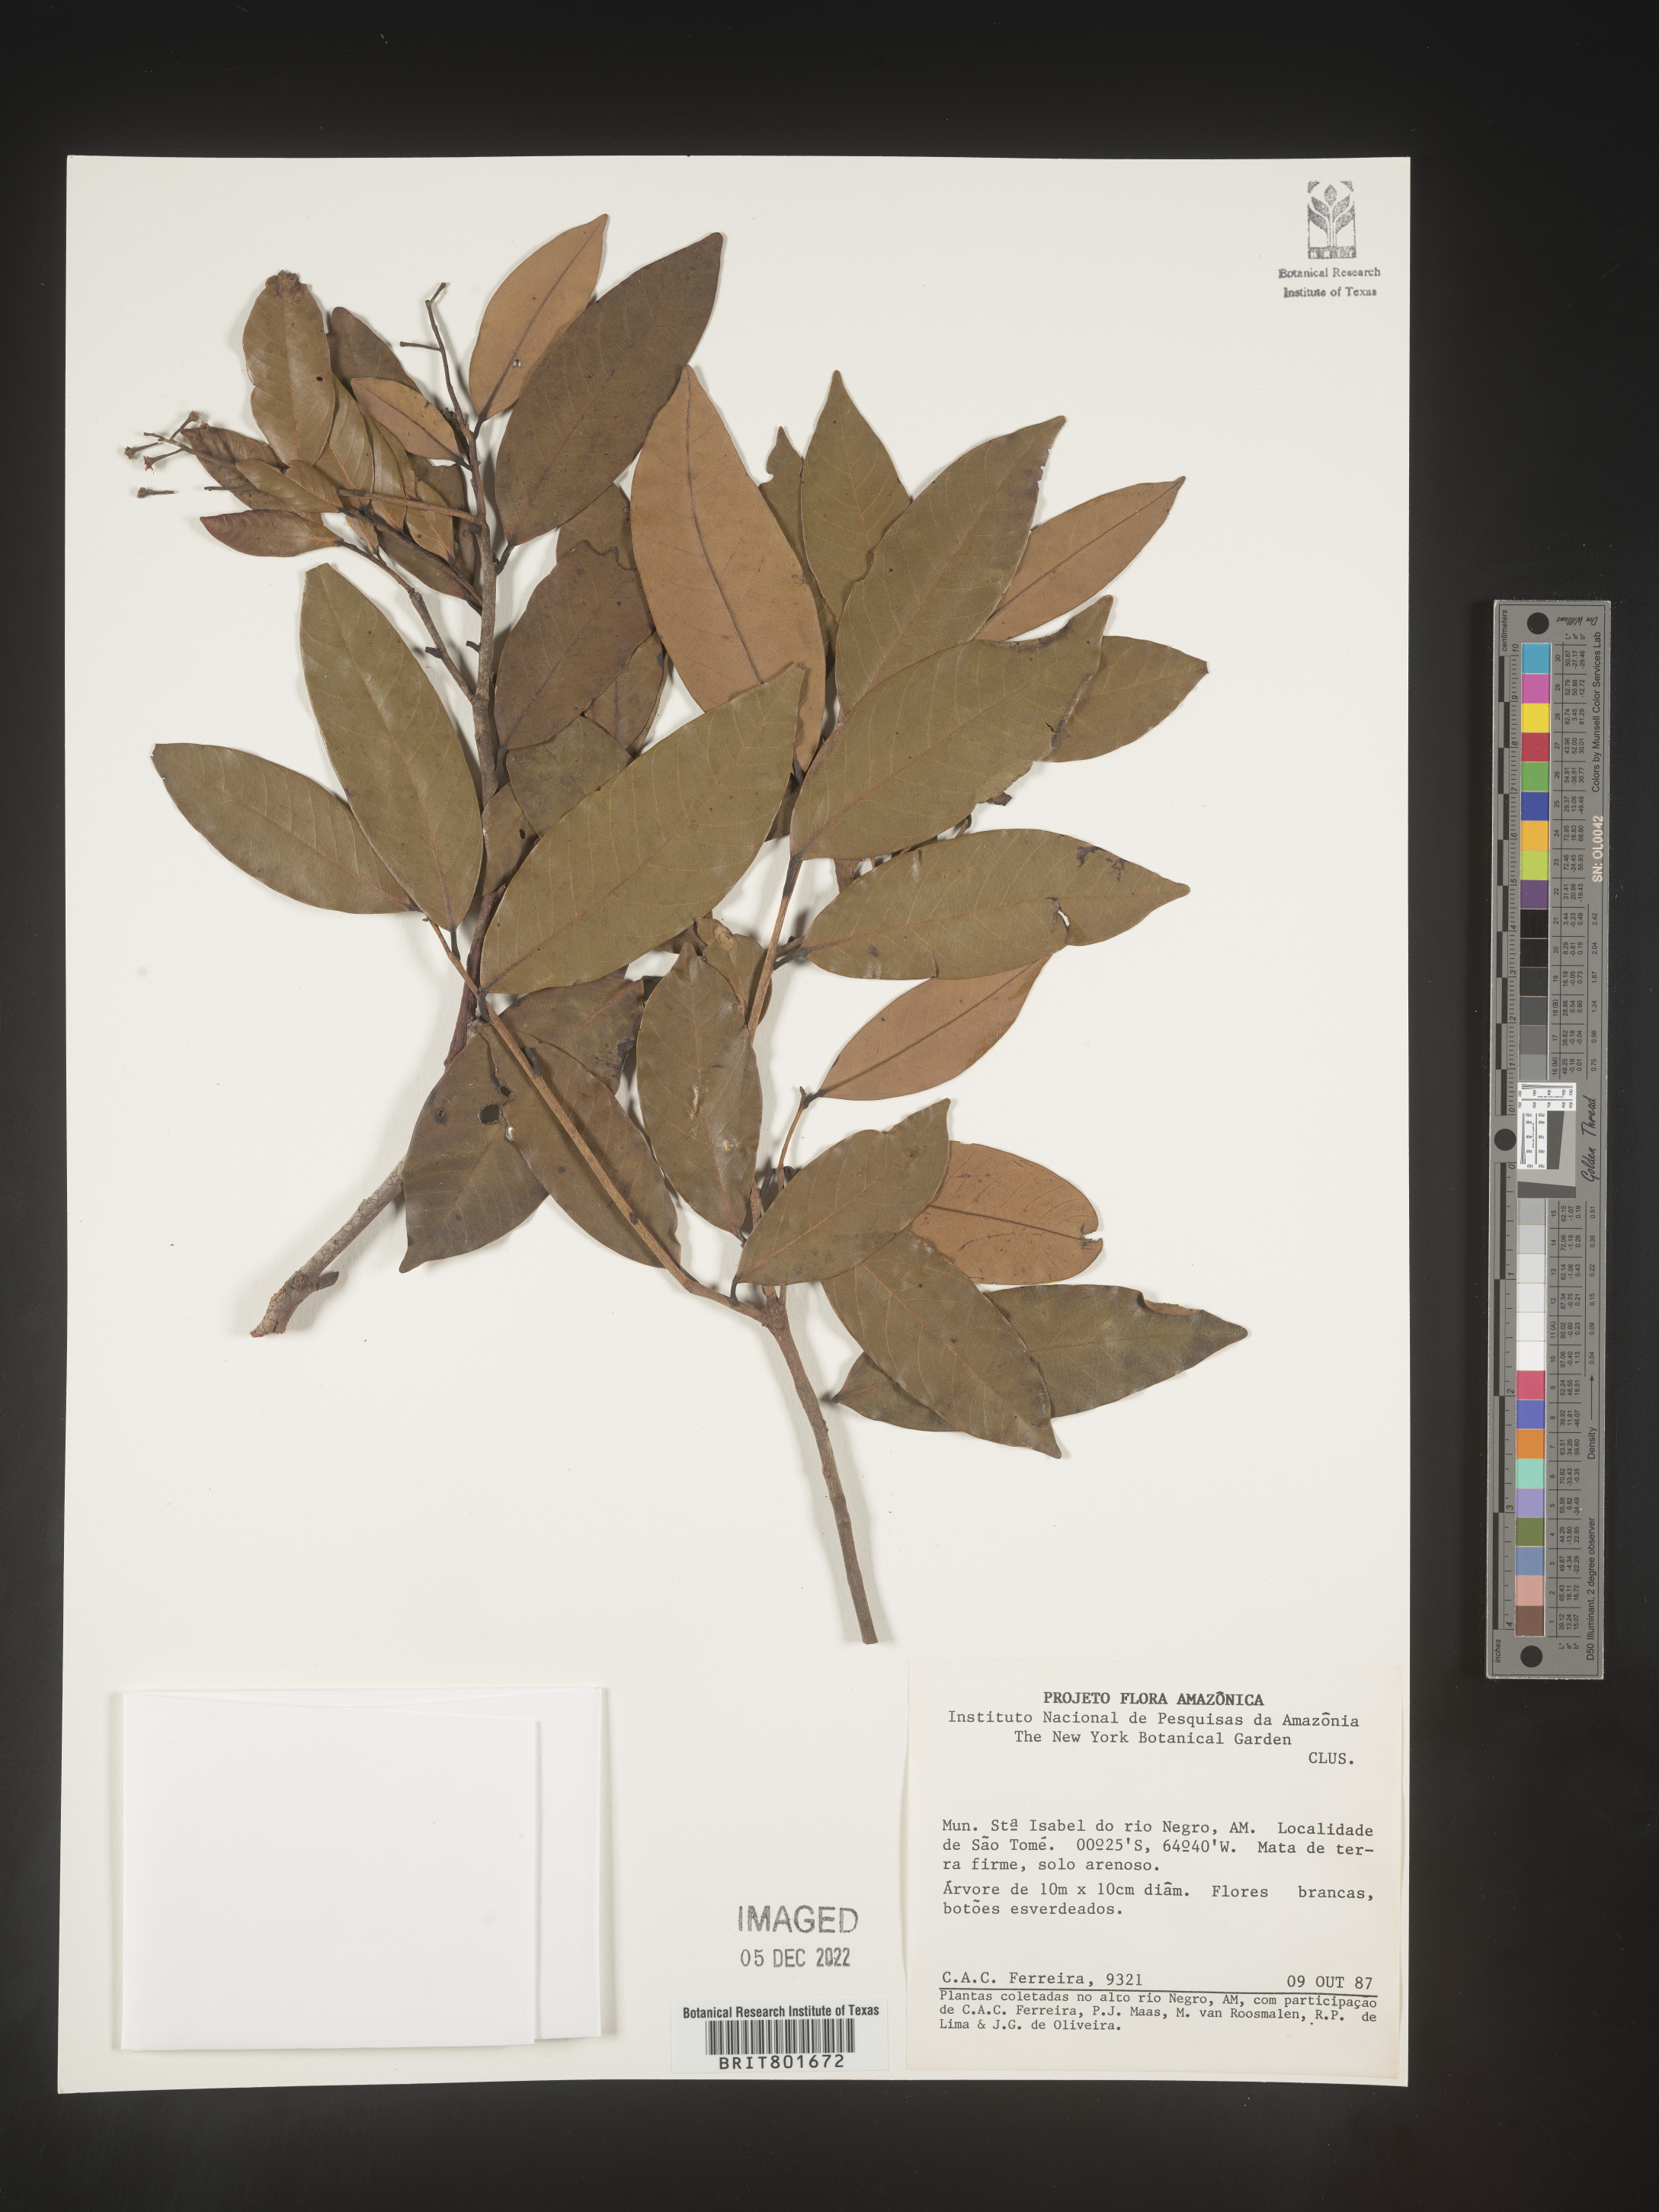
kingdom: Plantae
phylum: Tracheophyta
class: Magnoliopsida
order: Malpighiales
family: Clusiaceae
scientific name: Clusiaceae
